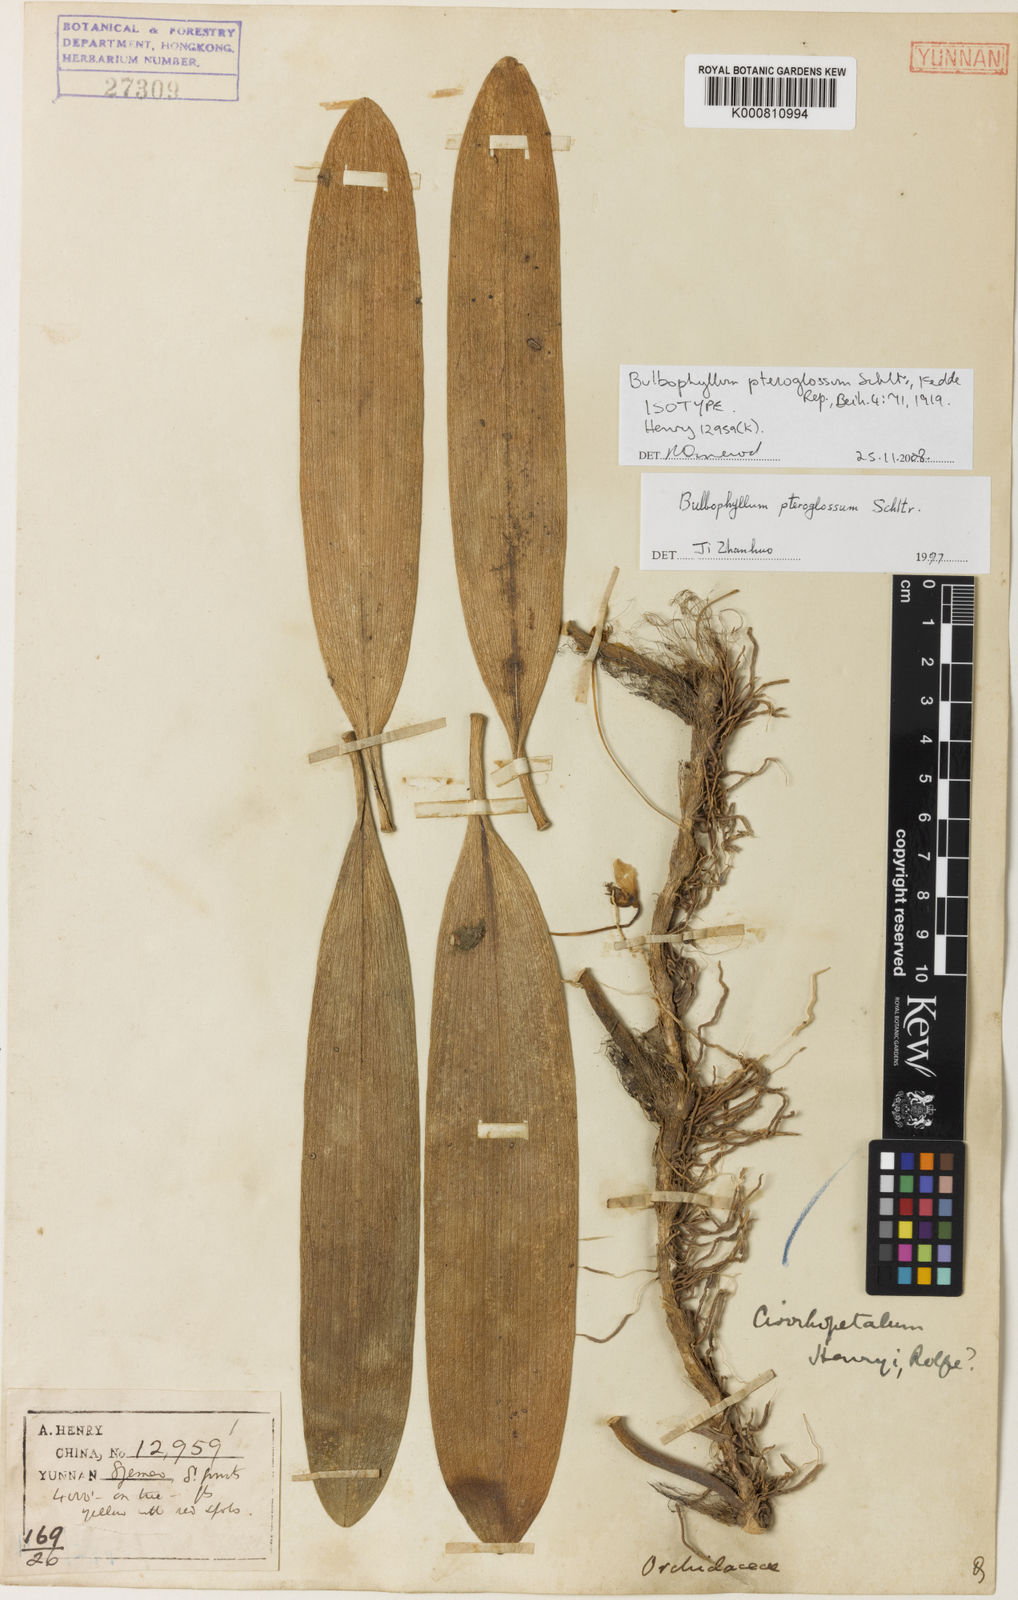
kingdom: Plantae
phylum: Tracheophyta
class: Liliopsida
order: Asparagales
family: Orchidaceae
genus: Bulbophyllum
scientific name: Bulbophyllum montanum
